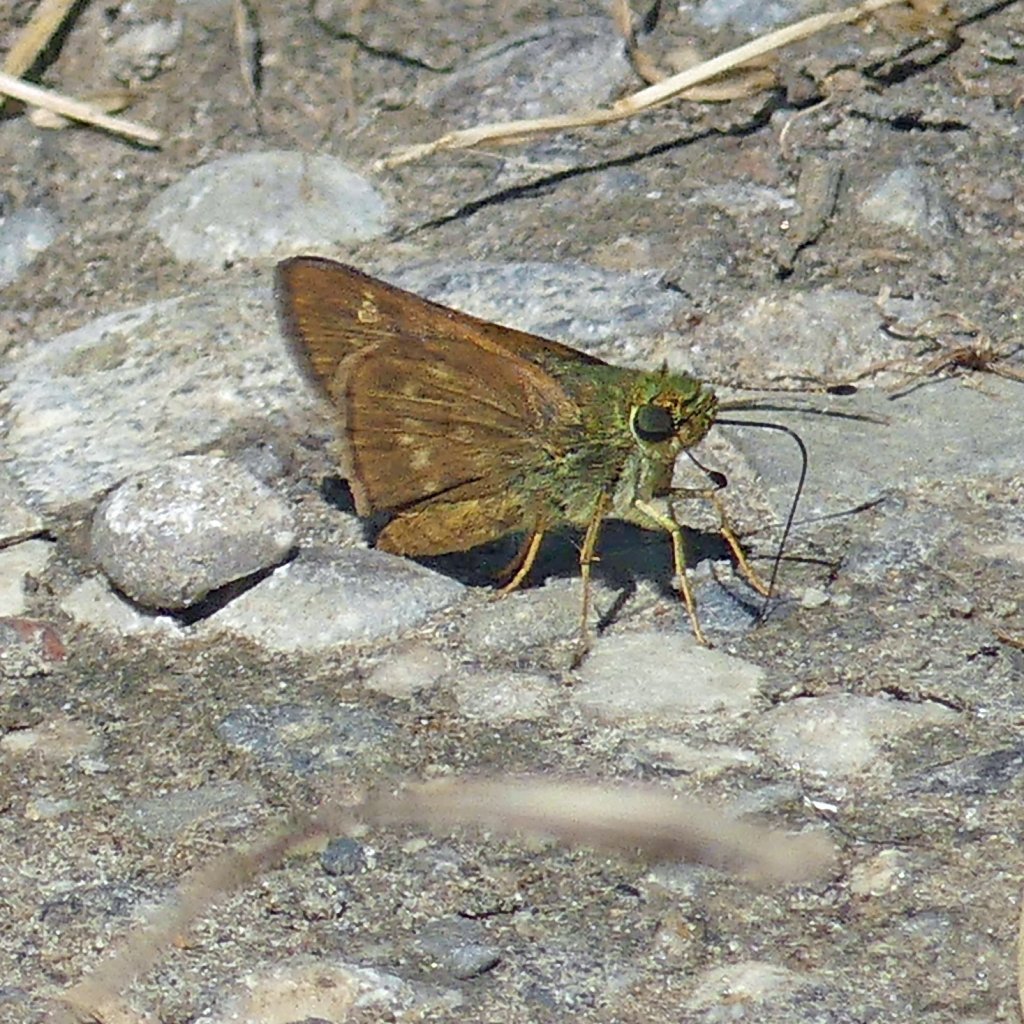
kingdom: Animalia
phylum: Arthropoda
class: Insecta
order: Lepidoptera
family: Hesperiidae
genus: Vernia
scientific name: Vernia verna
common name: Little Glassywing
